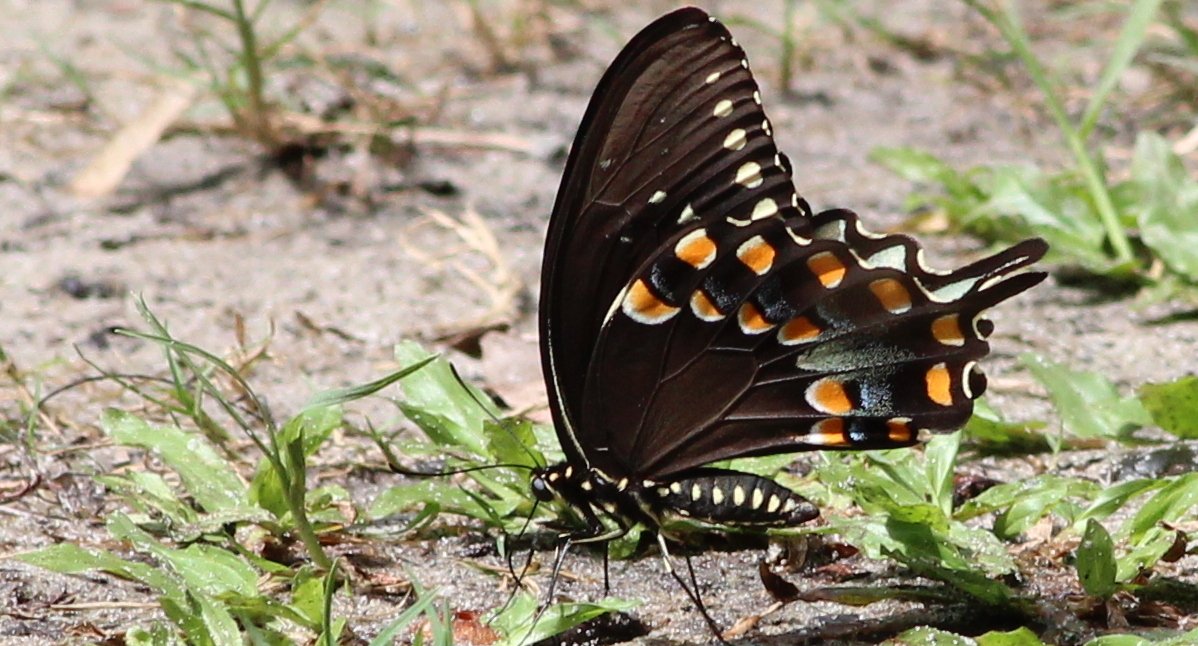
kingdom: Animalia
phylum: Arthropoda
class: Insecta
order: Lepidoptera
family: Papilionidae
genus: Pterourus
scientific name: Pterourus troilus
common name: Spicebush Swallowtail
